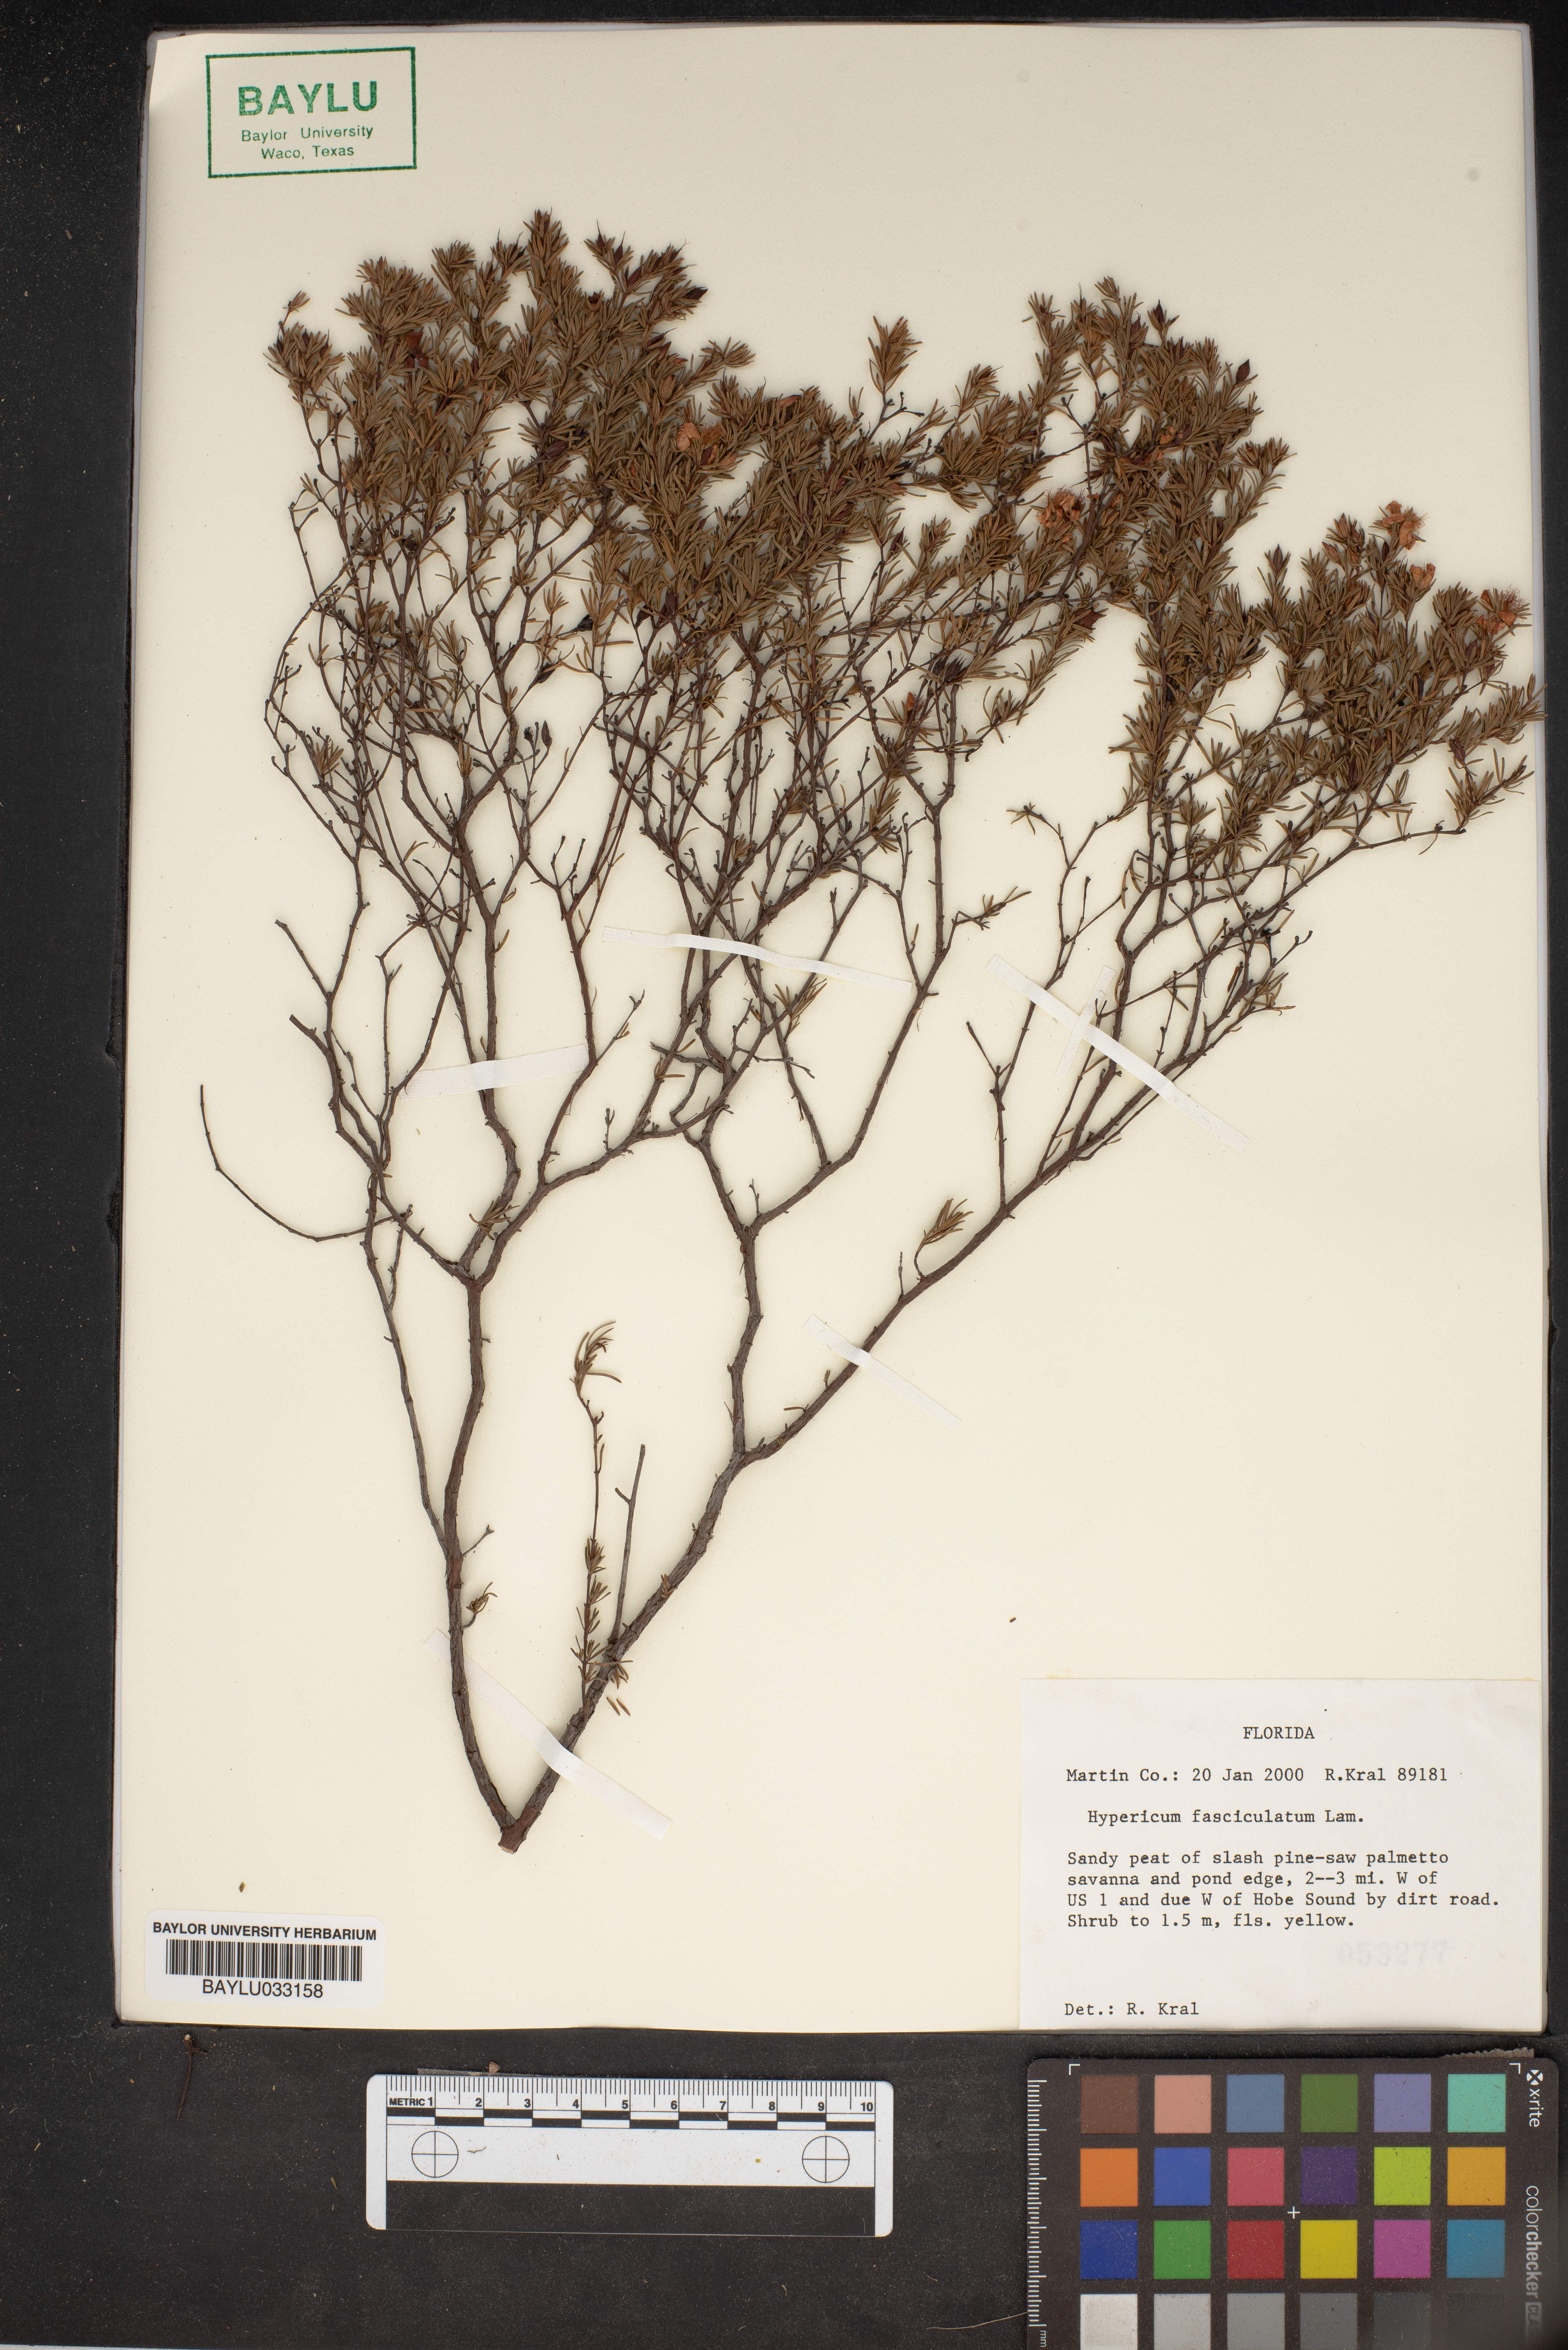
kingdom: Plantae
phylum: Tracheophyta
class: Magnoliopsida
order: Malpighiales
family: Hypericaceae
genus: Hypericum
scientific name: Hypericum fasciculatum
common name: Peelbark st. john's wort
